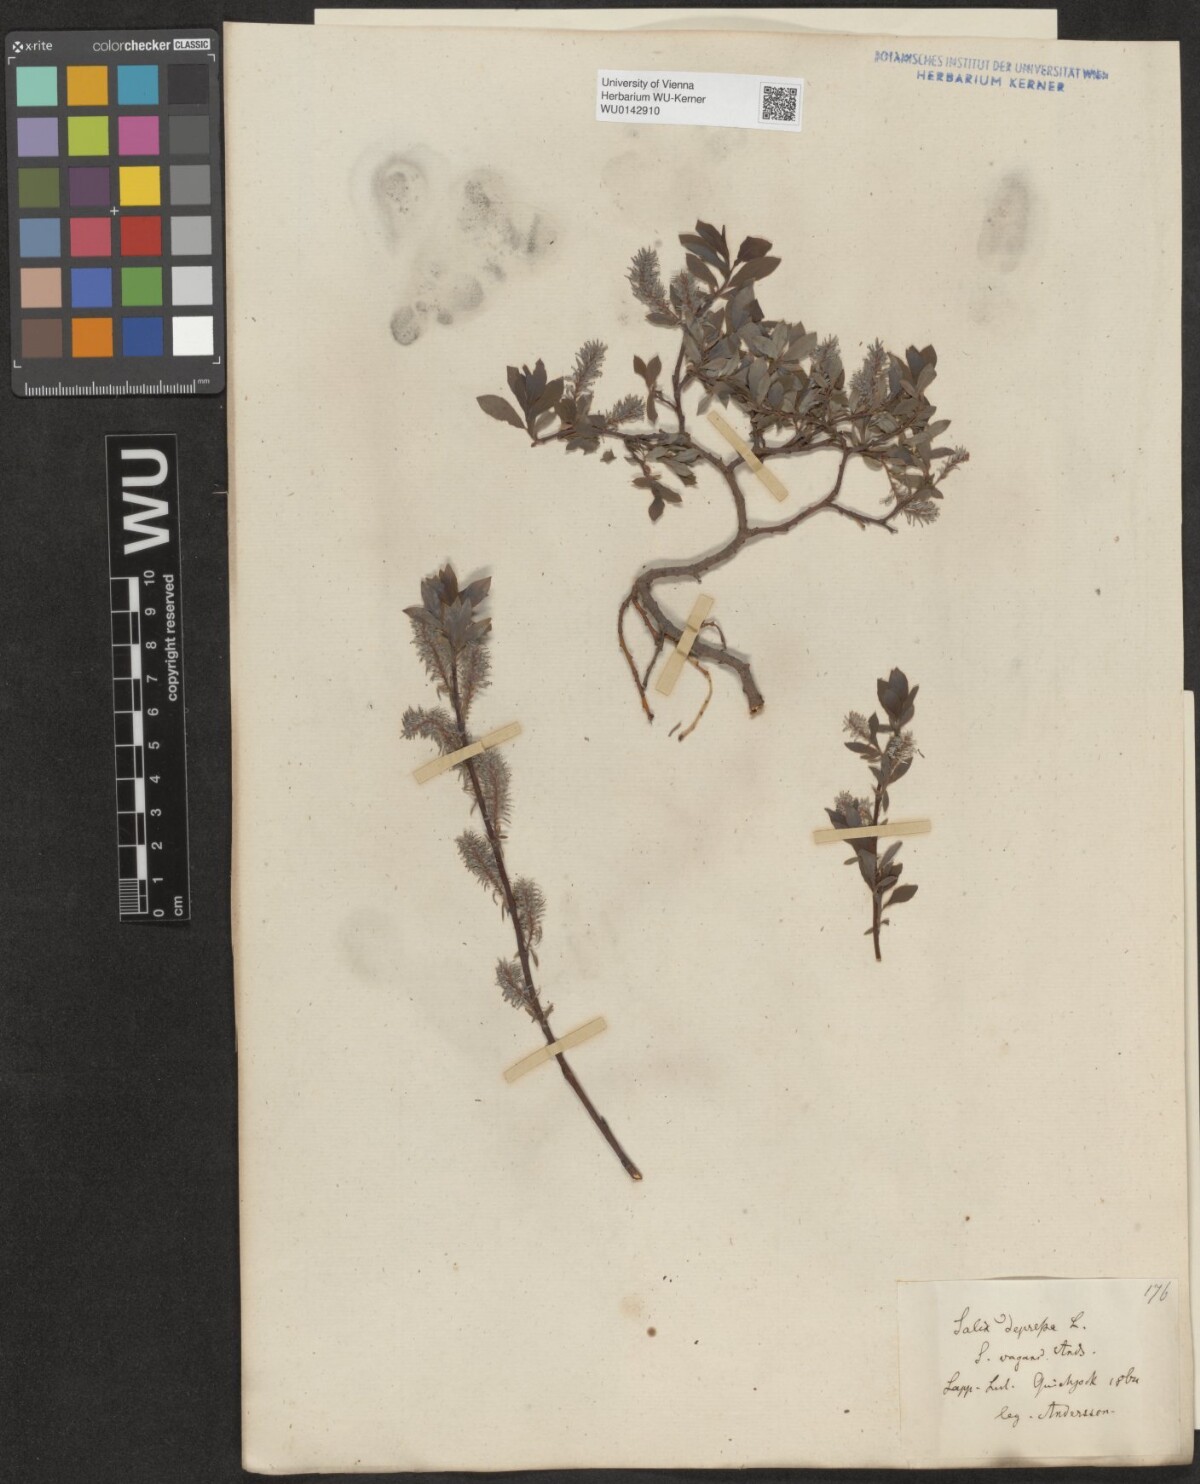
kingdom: Plantae
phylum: Tracheophyta
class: Magnoliopsida
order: Malpighiales
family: Salicaceae
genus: Salix
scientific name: Salix starkeana
